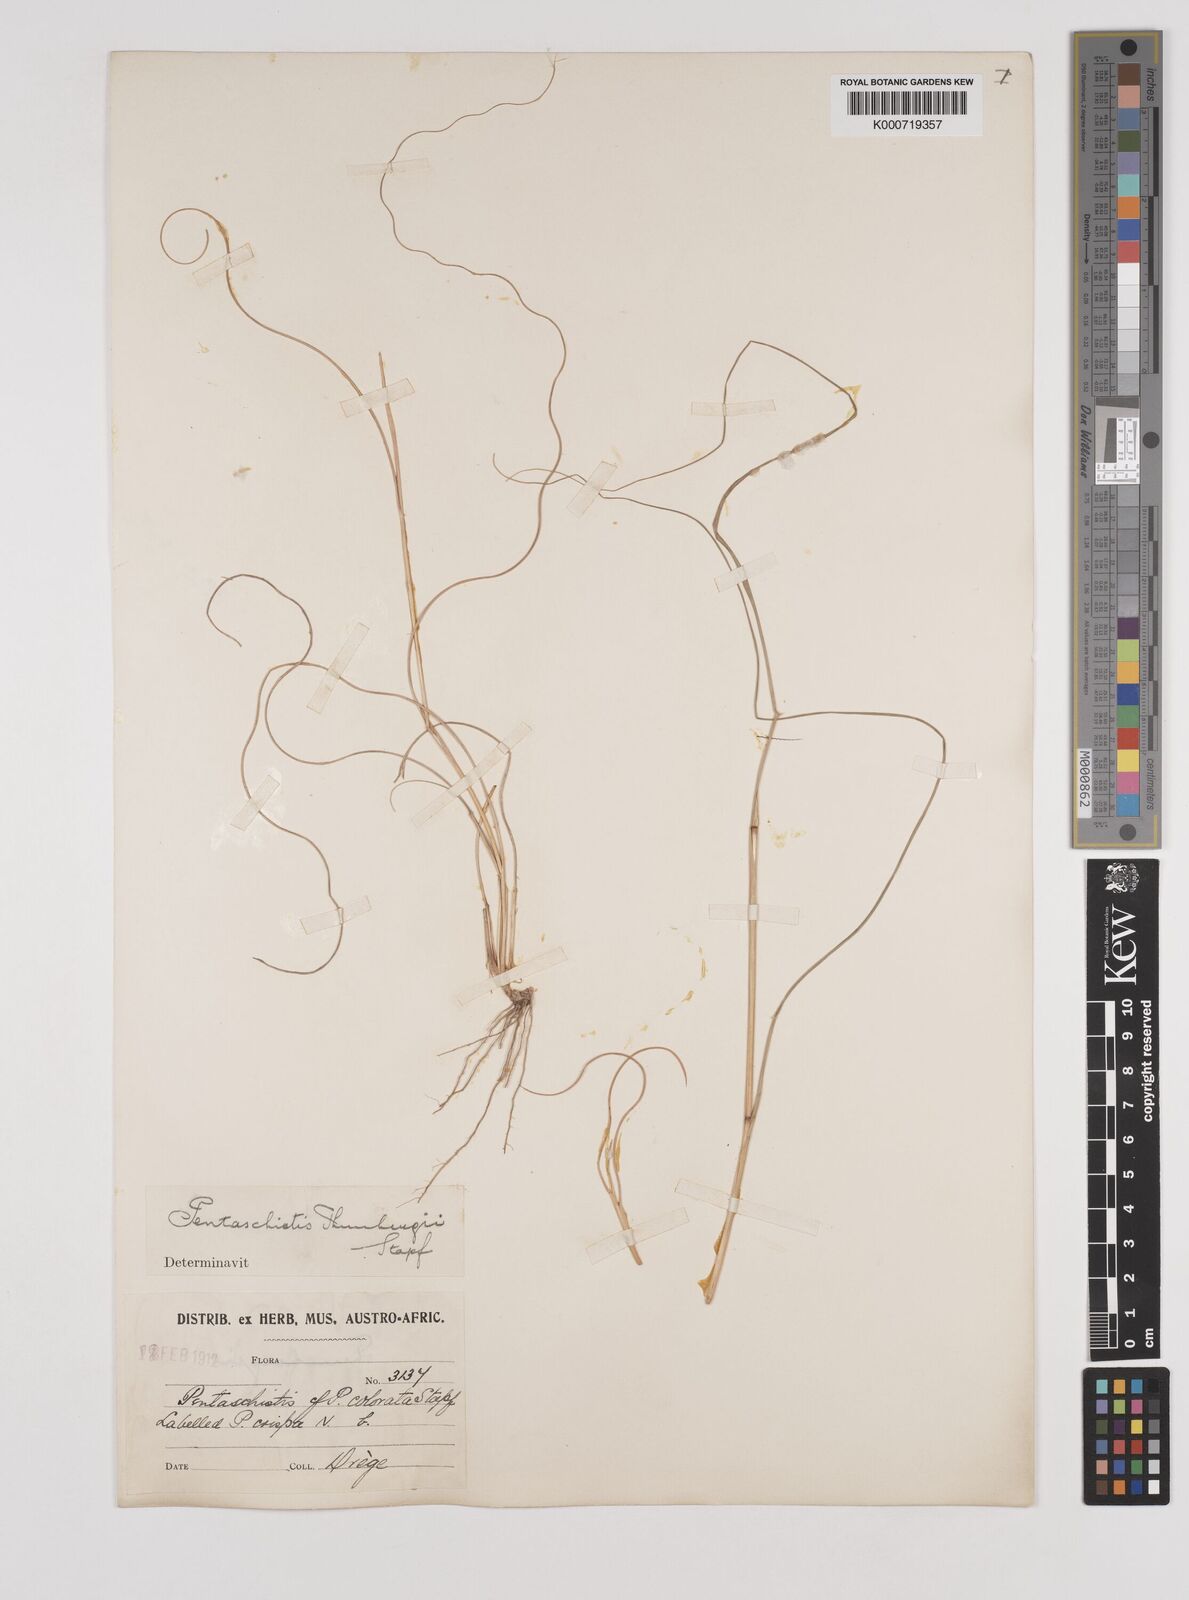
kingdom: Plantae
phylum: Tracheophyta
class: Liliopsida
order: Poales
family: Poaceae
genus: Pentameris
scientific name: Pentameris triseta
